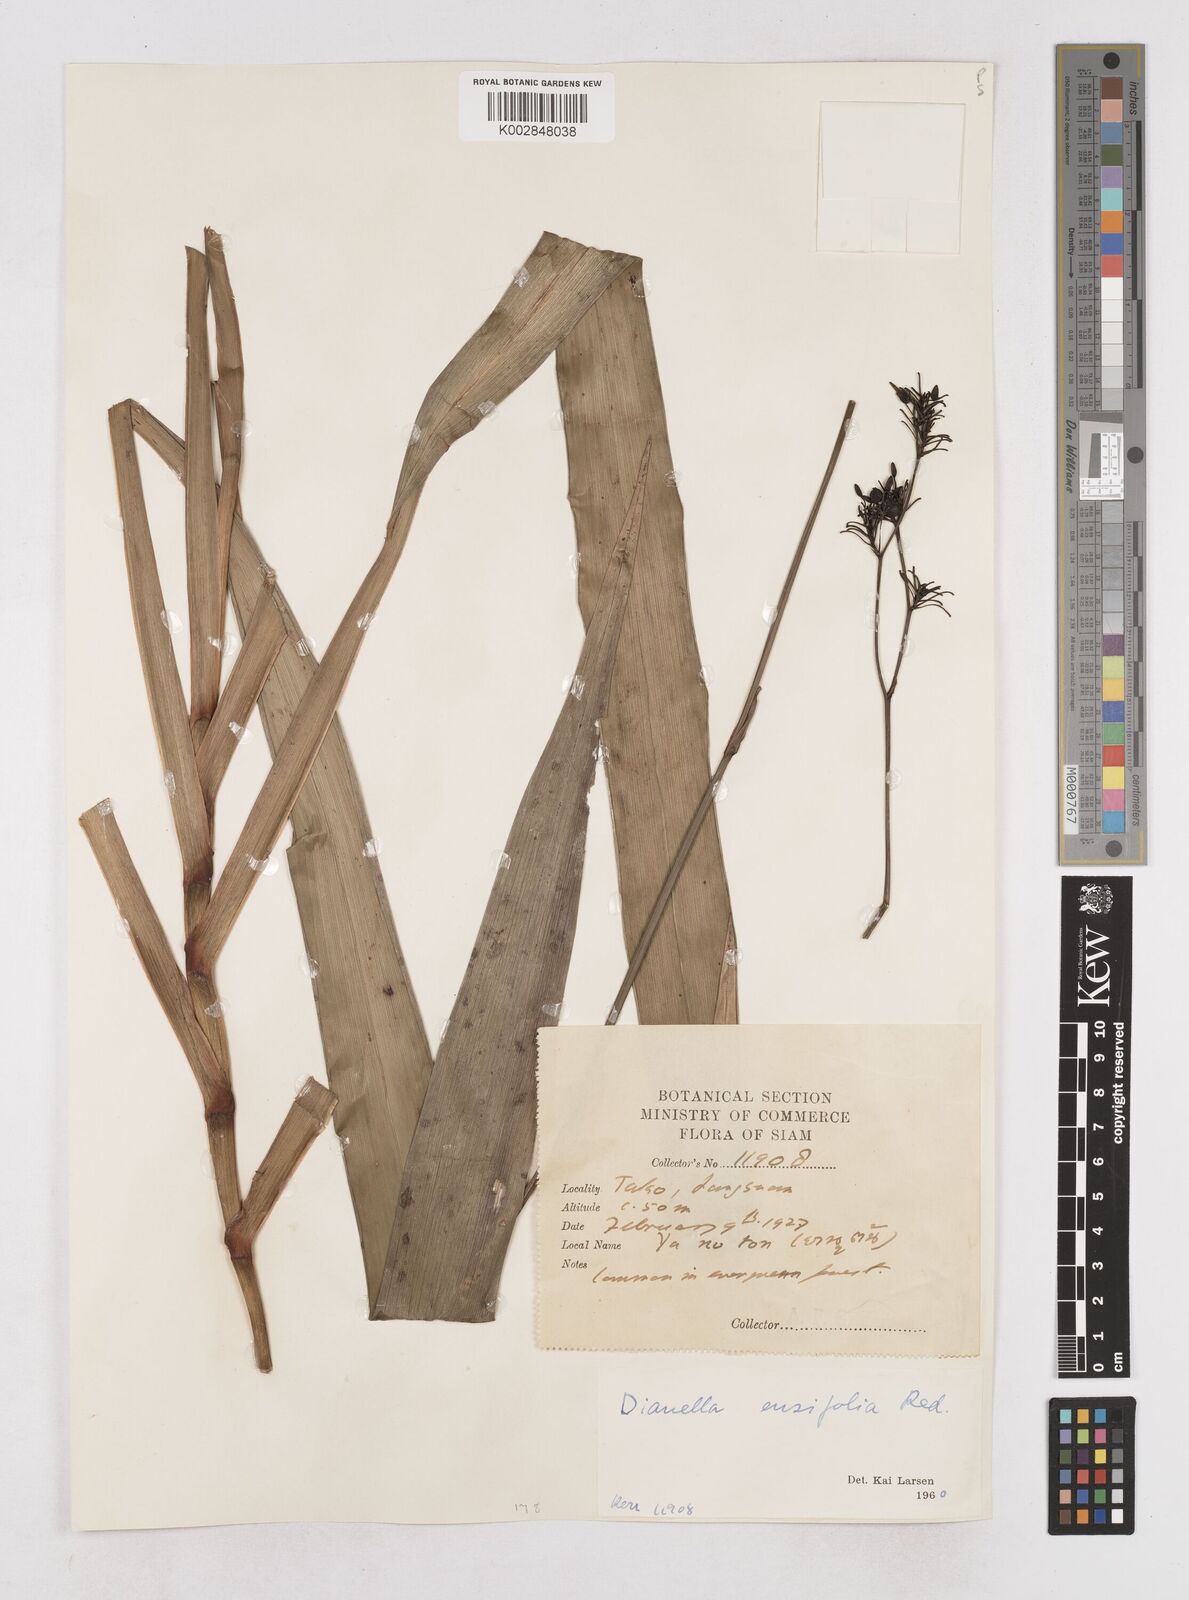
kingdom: Plantae
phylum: Tracheophyta
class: Liliopsida
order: Asparagales
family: Asphodelaceae
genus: Dianella
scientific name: Dianella ensifolia
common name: New zealand lilyplant
